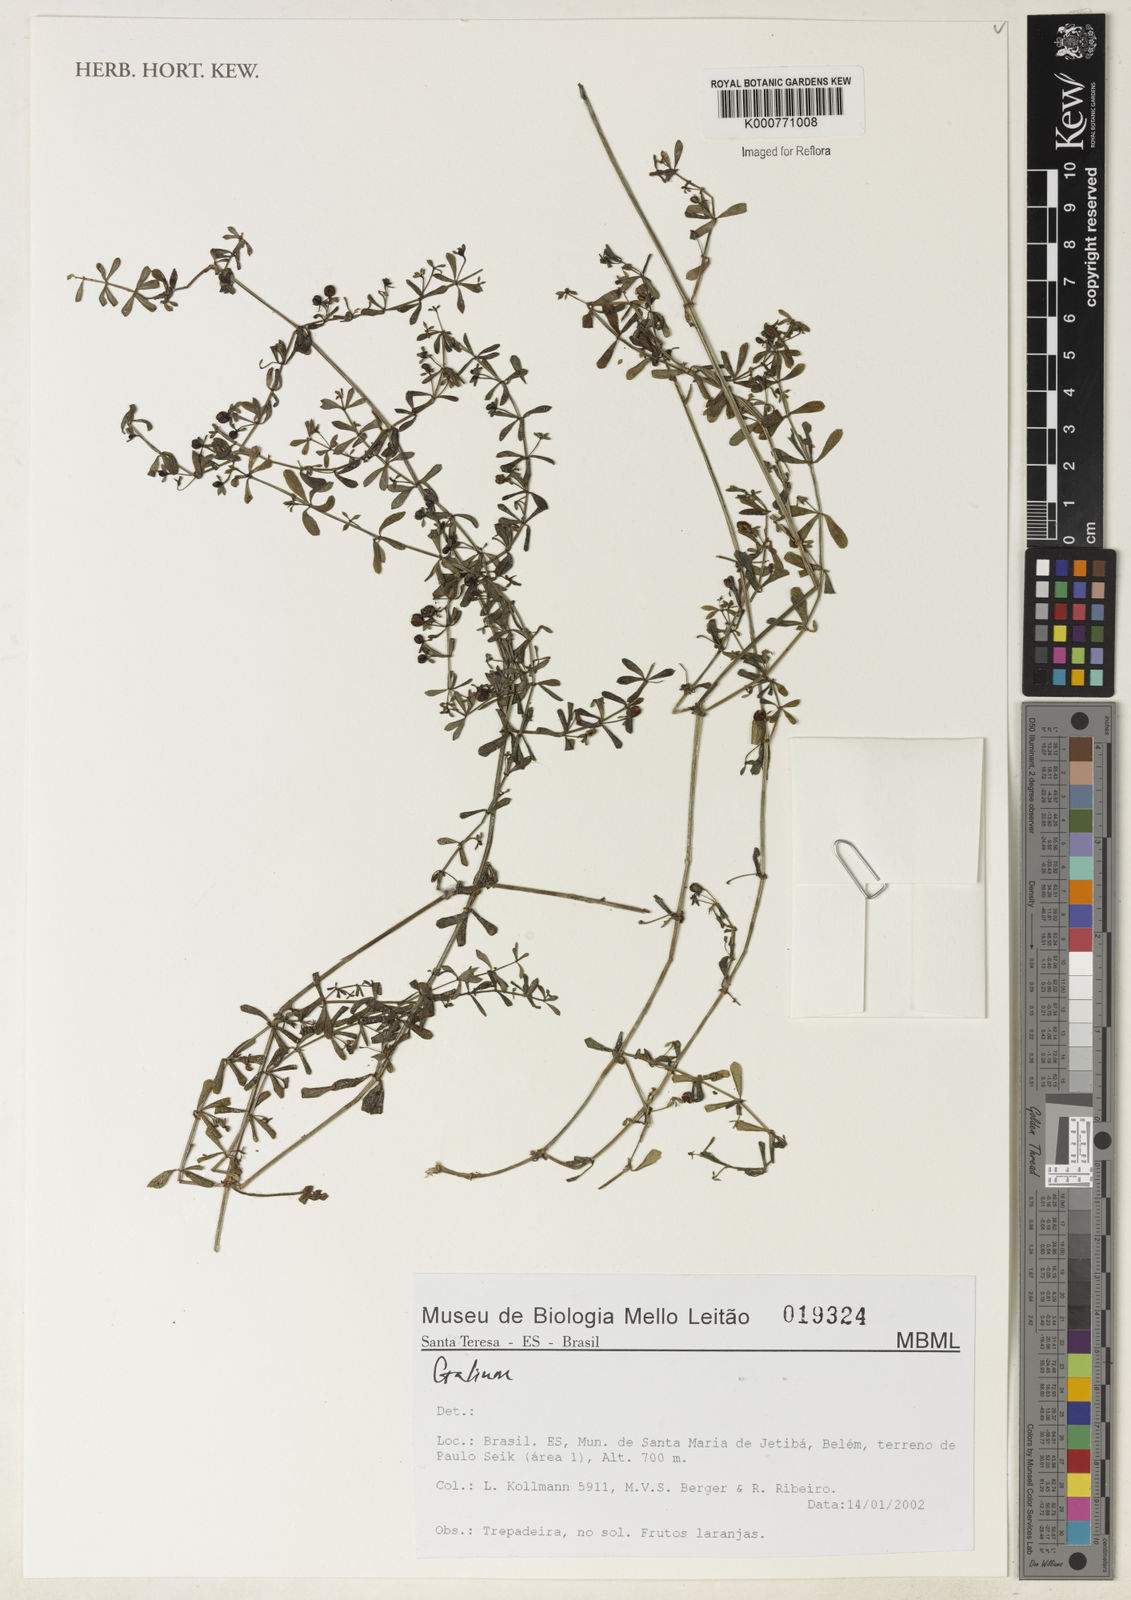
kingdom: Plantae
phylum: Tracheophyta
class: Magnoliopsida
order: Gentianales
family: Rubiaceae
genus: Galium
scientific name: Galium
